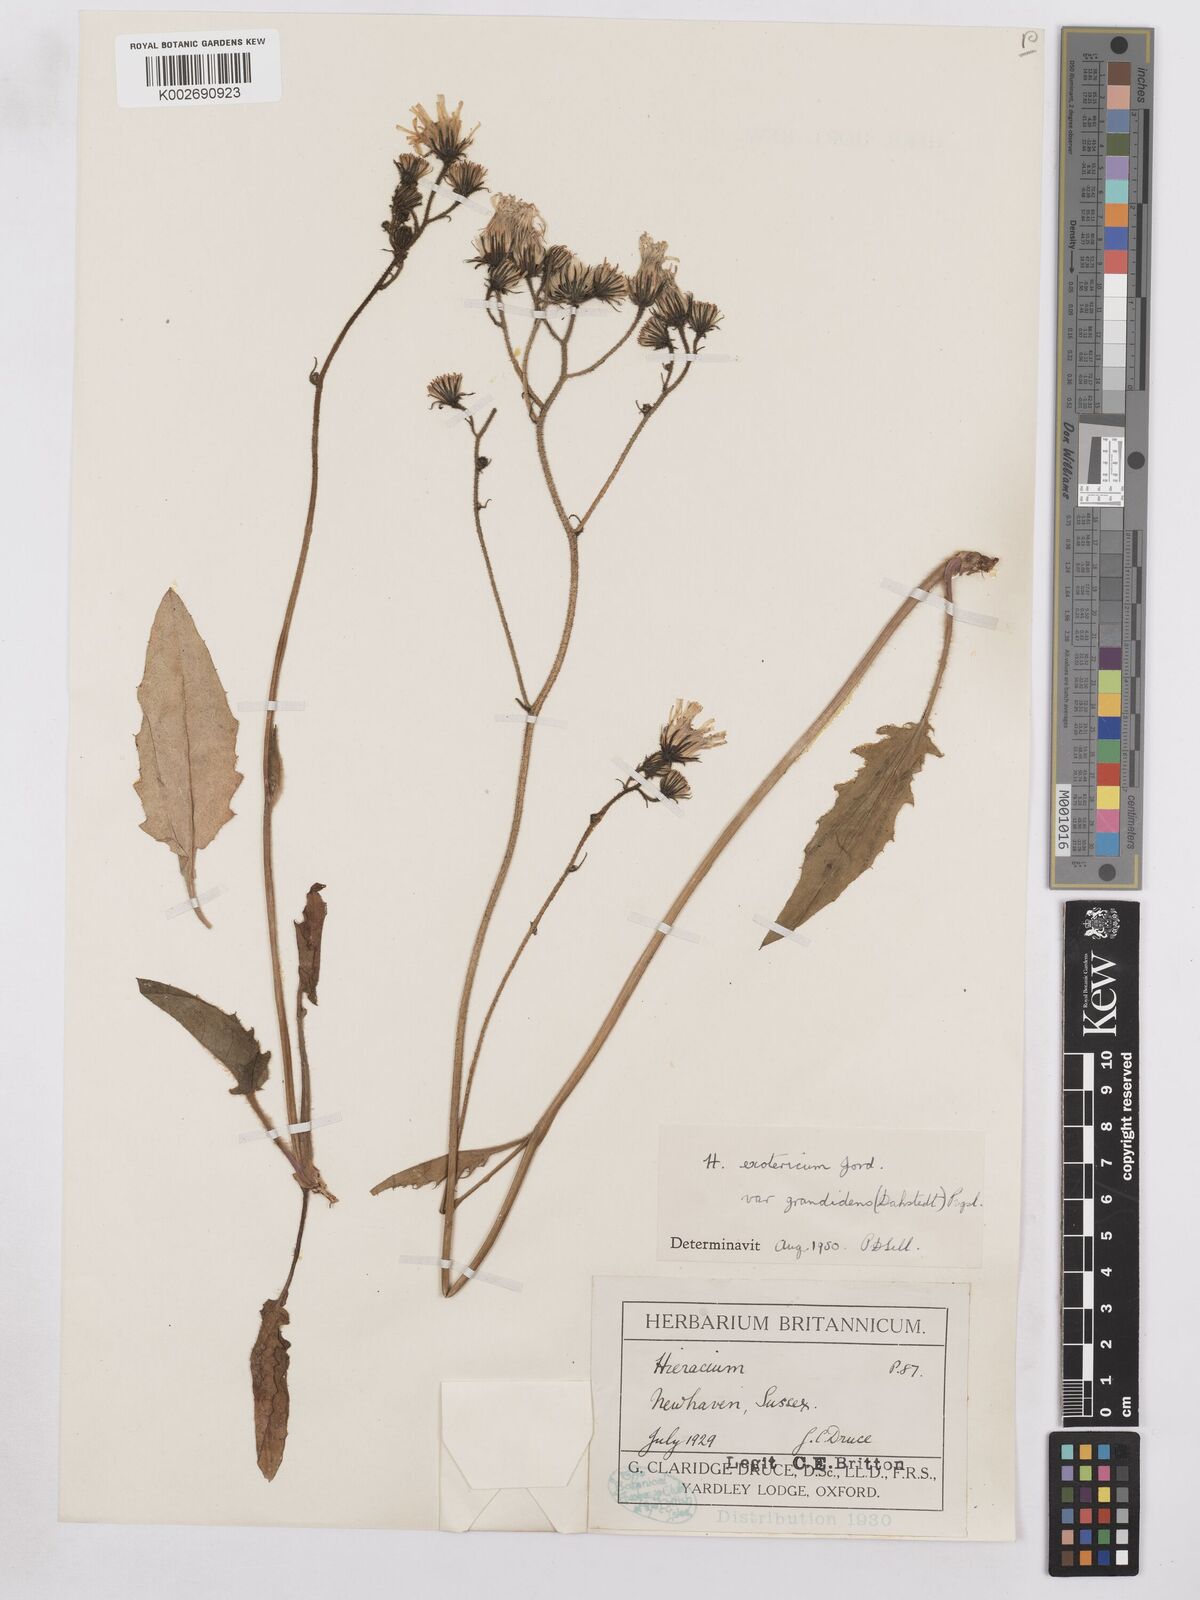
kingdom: Plantae
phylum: Tracheophyta
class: Magnoliopsida
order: Asterales
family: Asteraceae
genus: Hieracium
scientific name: Hieracium murorum
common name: Wall hawkweed
